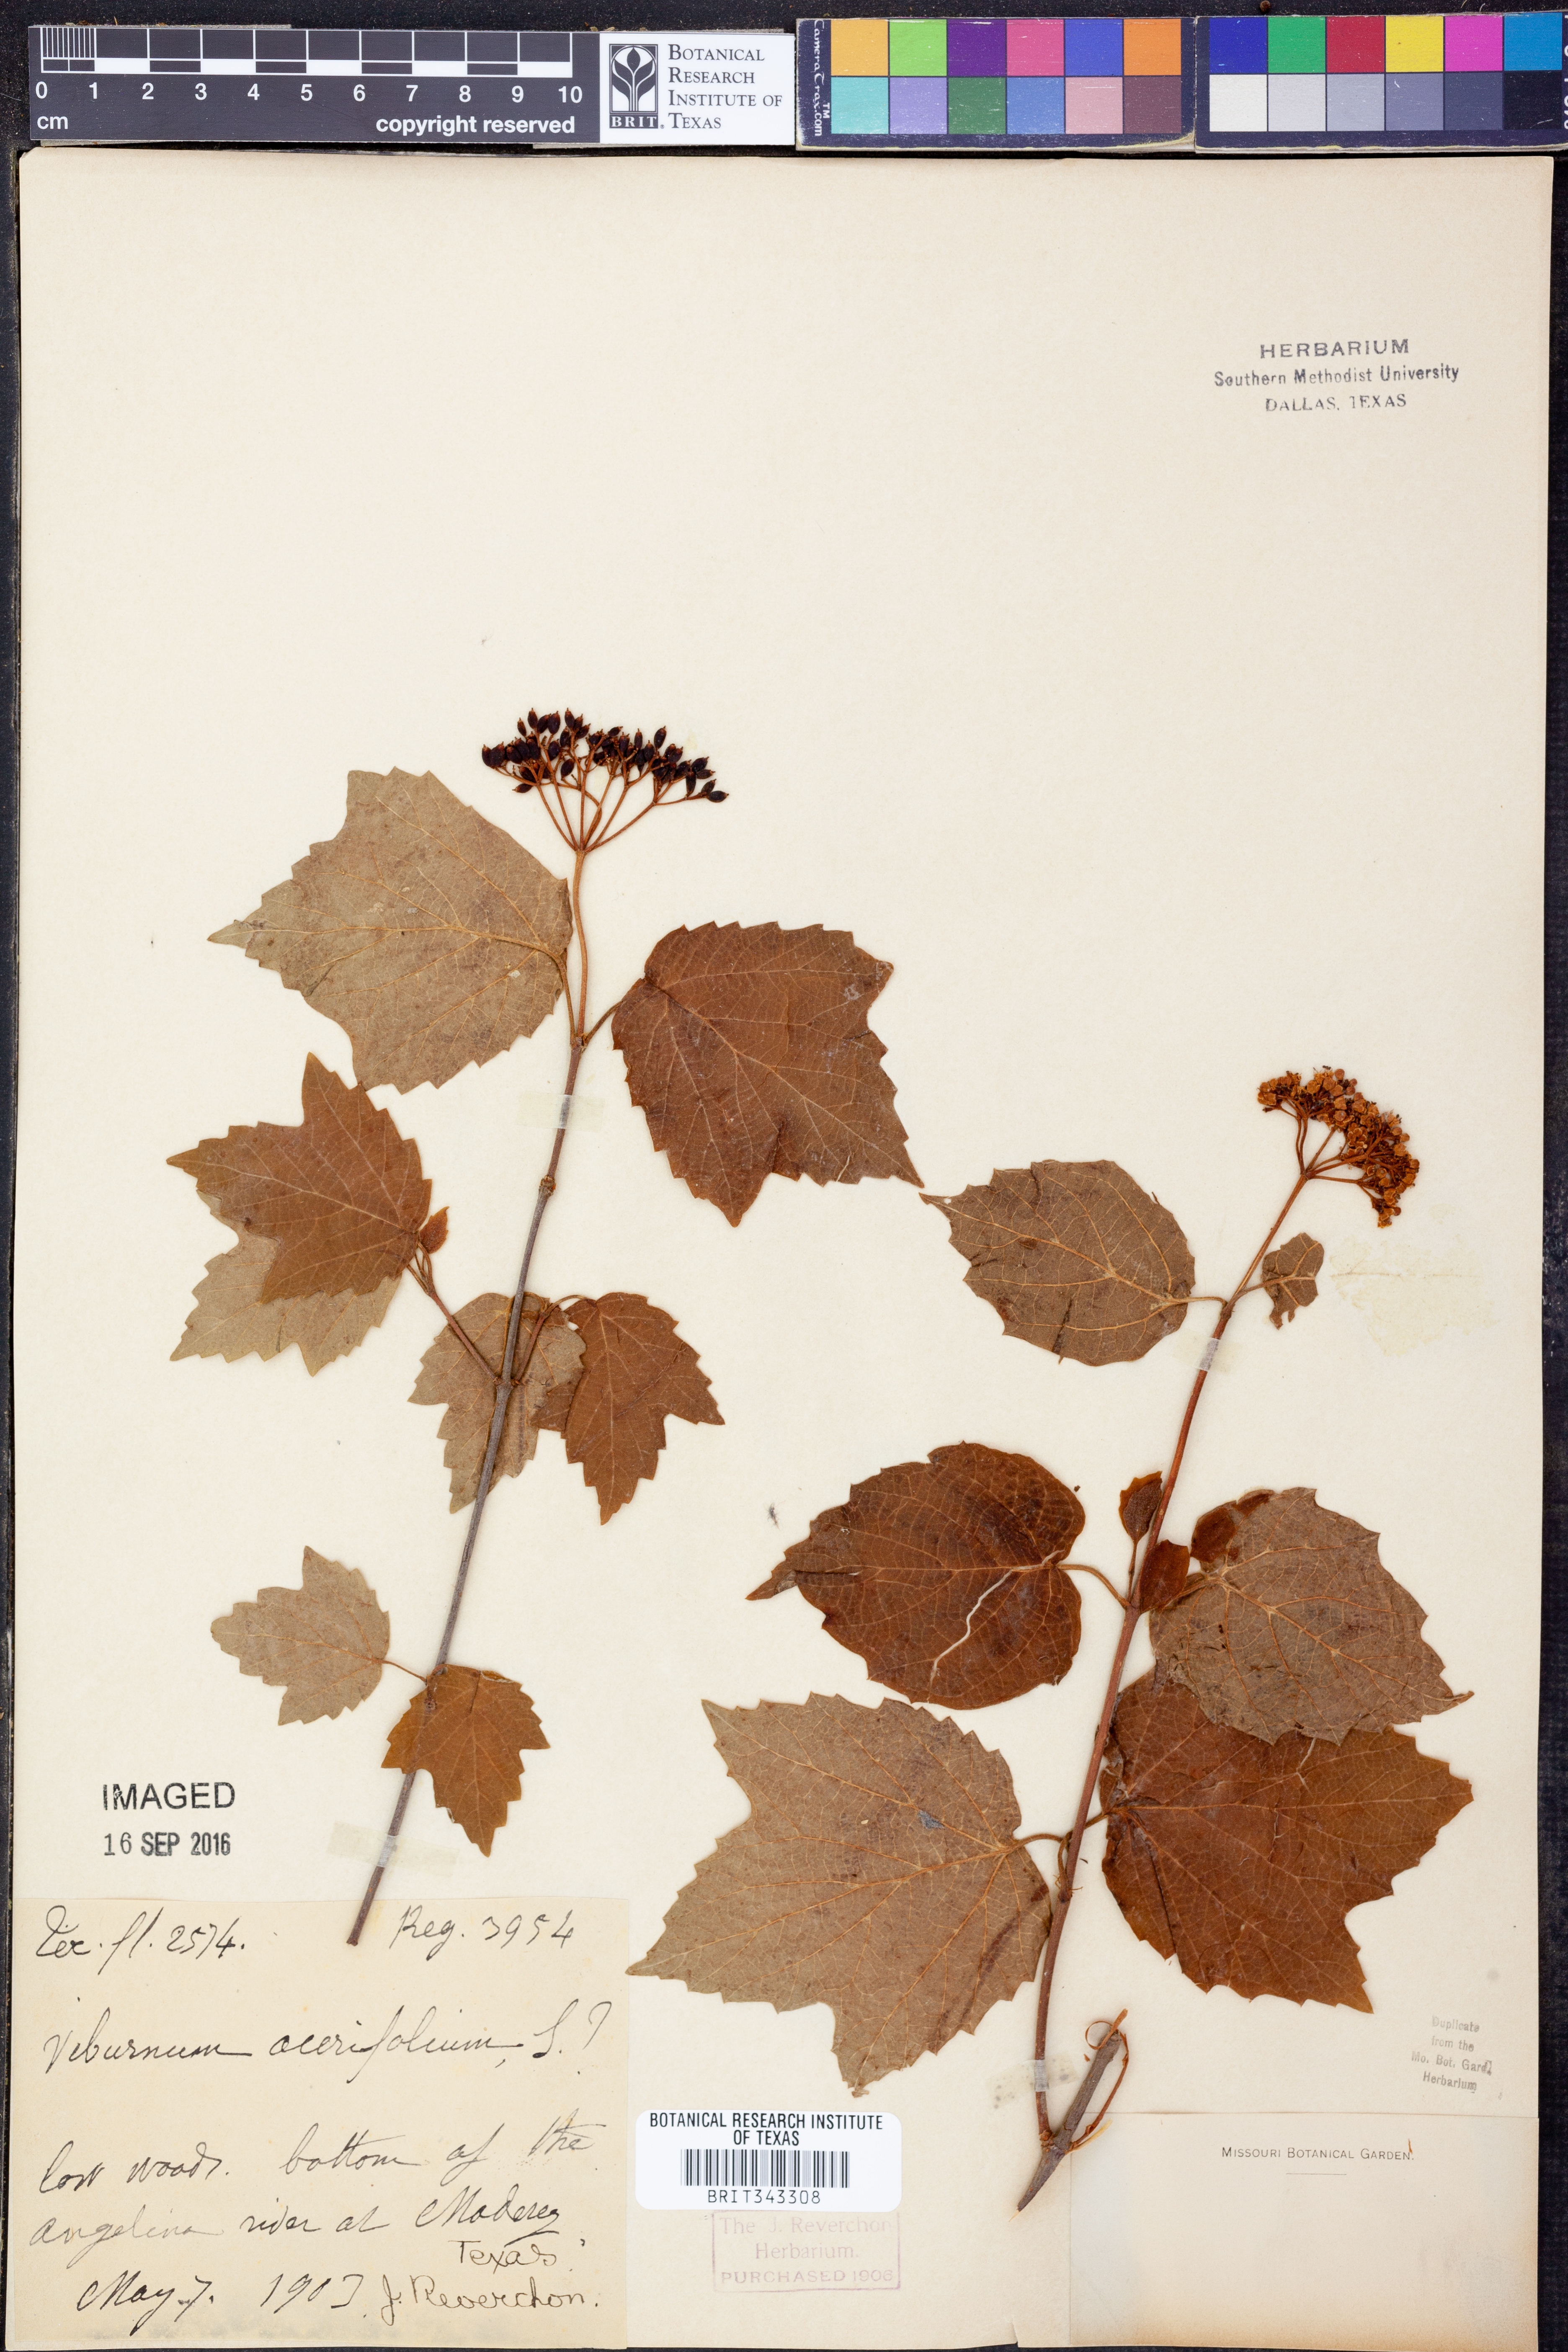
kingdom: Plantae
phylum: Tracheophyta
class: Magnoliopsida
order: Dipsacales
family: Viburnaceae
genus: Viburnum
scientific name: Viburnum acerifolium
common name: Dockmackie
